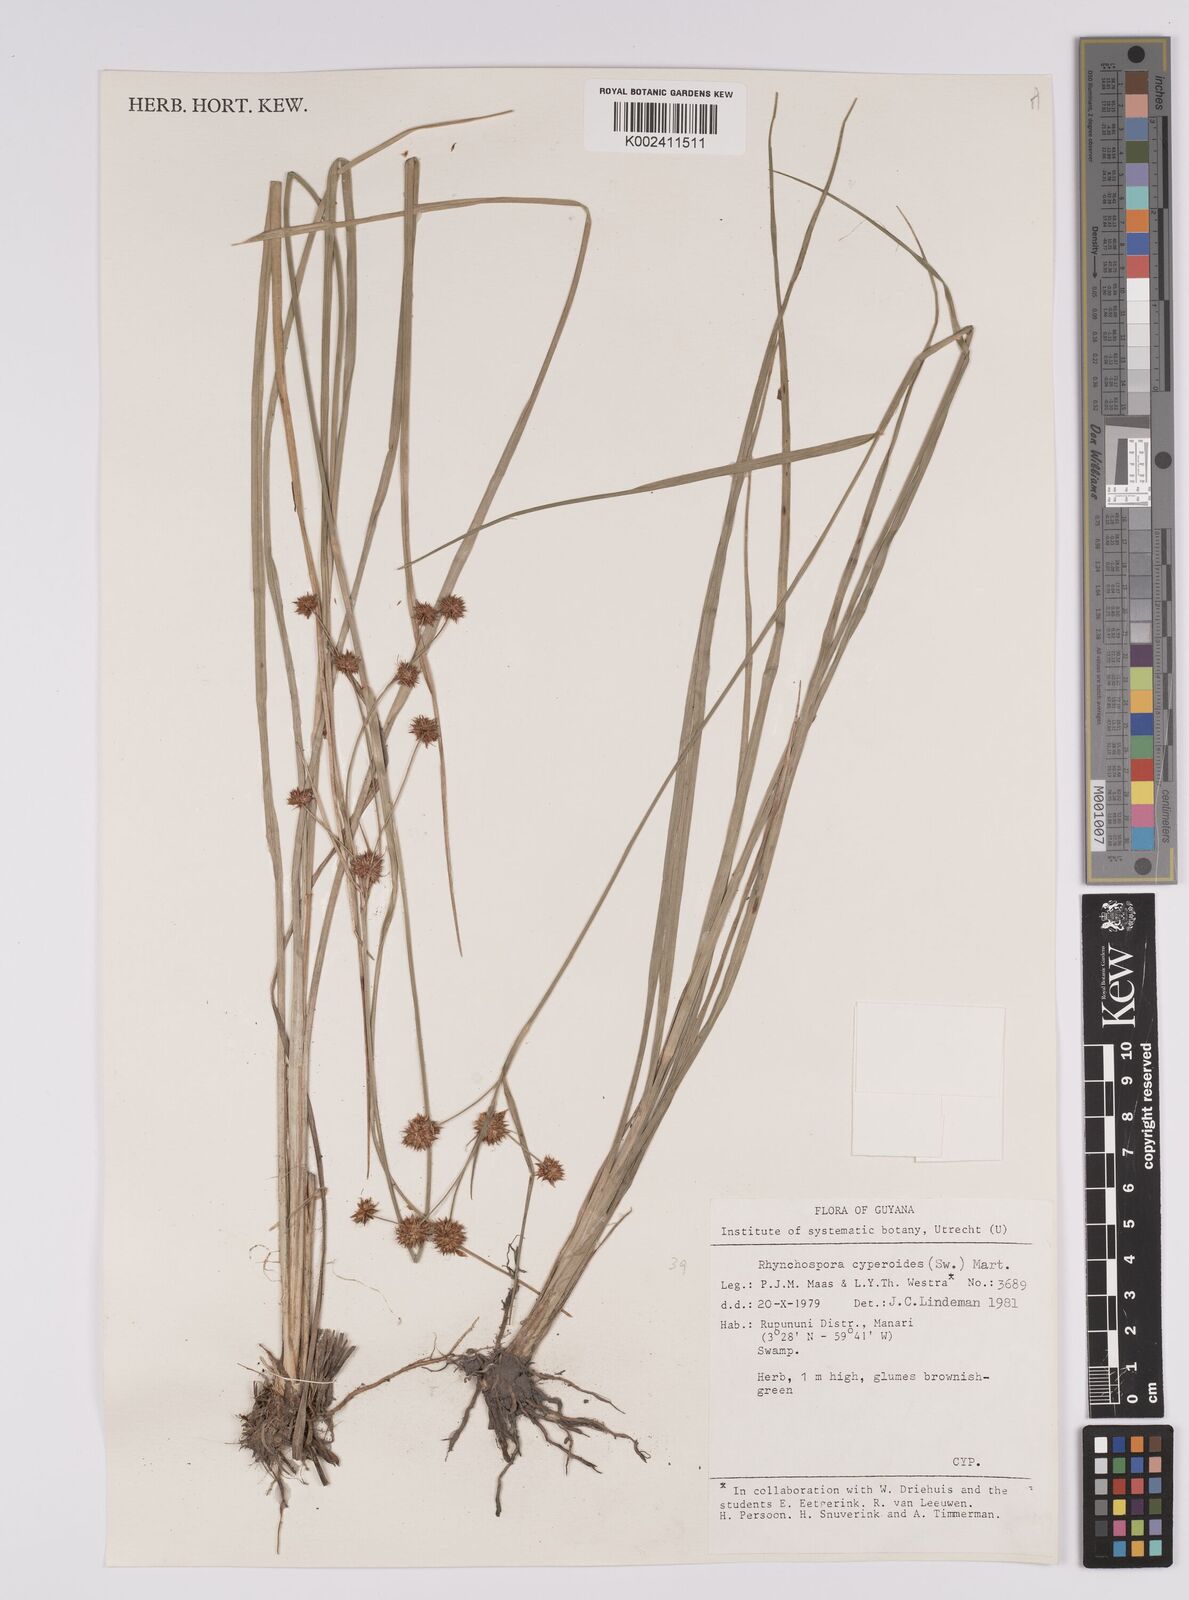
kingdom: Plantae
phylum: Tracheophyta
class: Liliopsida
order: Poales
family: Cyperaceae
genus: Rhynchospora
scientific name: Rhynchospora holoschoenoides
